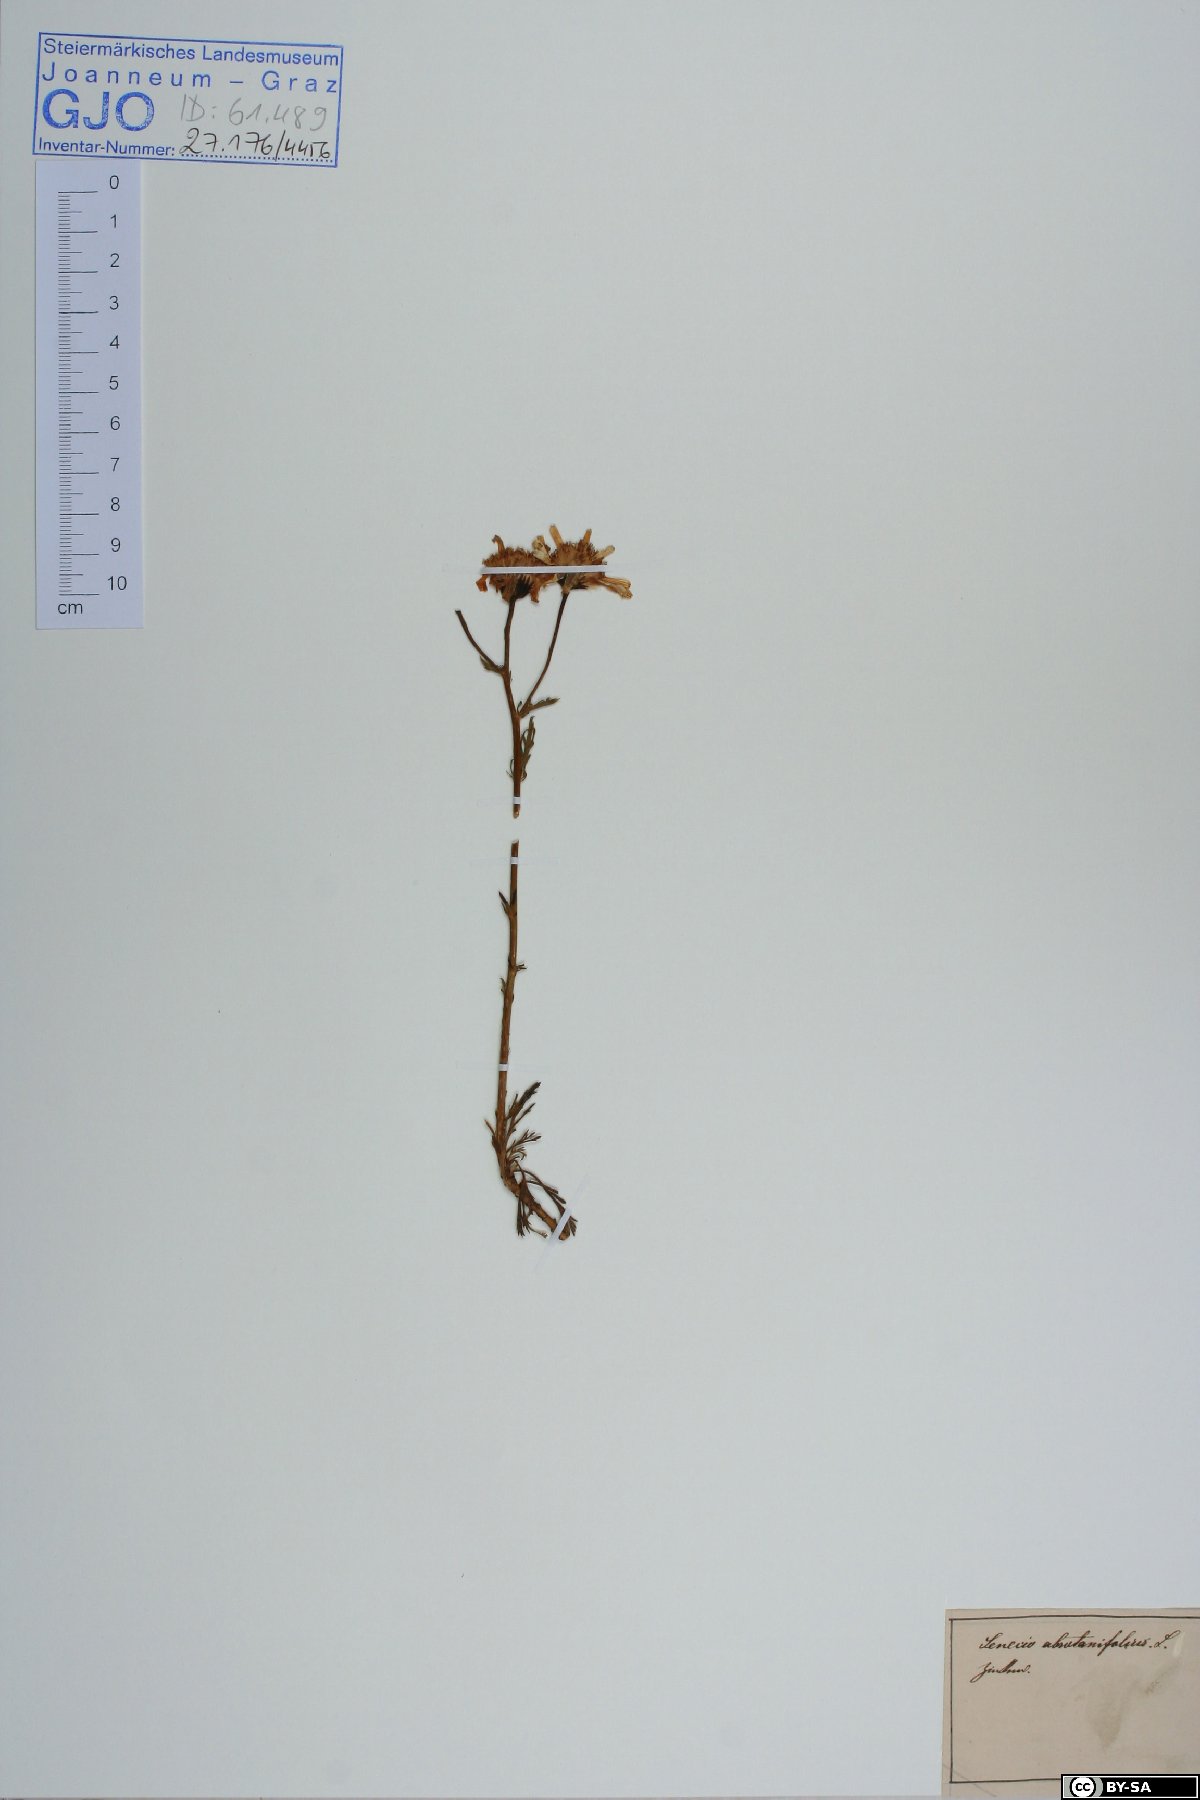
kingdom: Plantae
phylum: Tracheophyta
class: Magnoliopsida
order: Asterales
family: Asteraceae
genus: Jacobaea
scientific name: Jacobaea abrotanifolia
